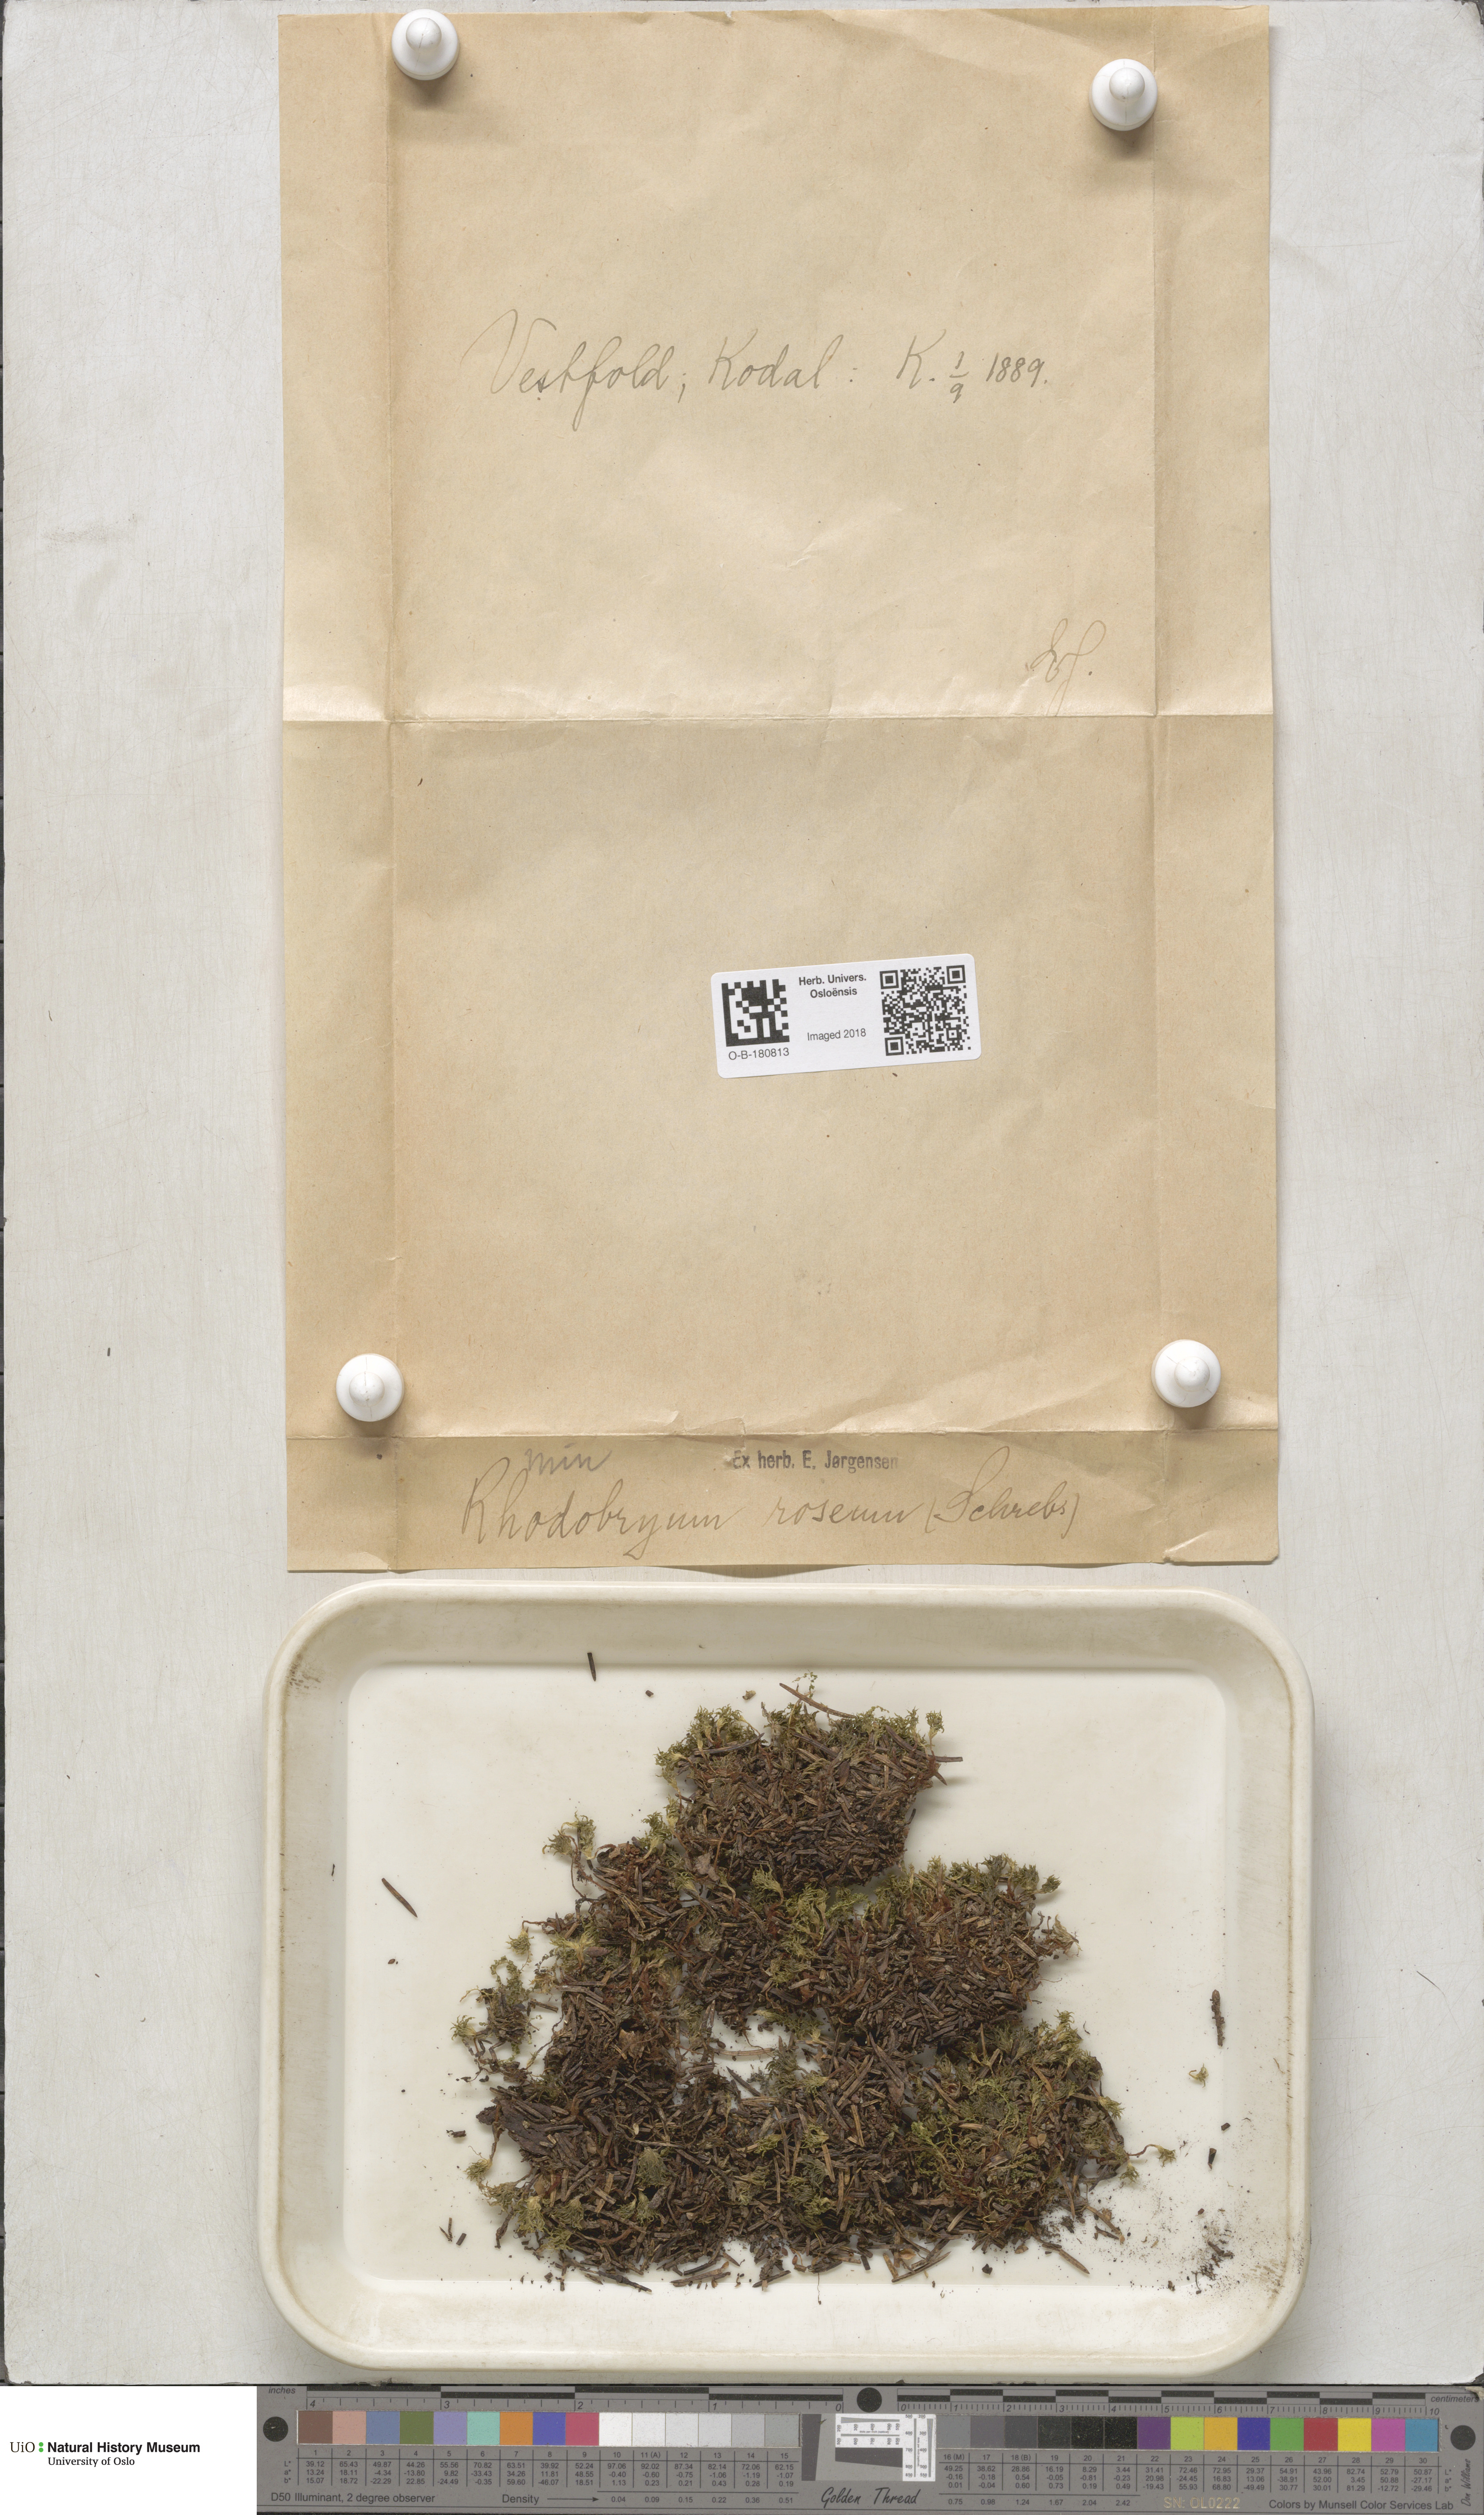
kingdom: Plantae
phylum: Bryophyta
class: Bryopsida
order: Bryales
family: Bryaceae
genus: Rhodobryum
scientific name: Rhodobryum roseum
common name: Rose-moss
